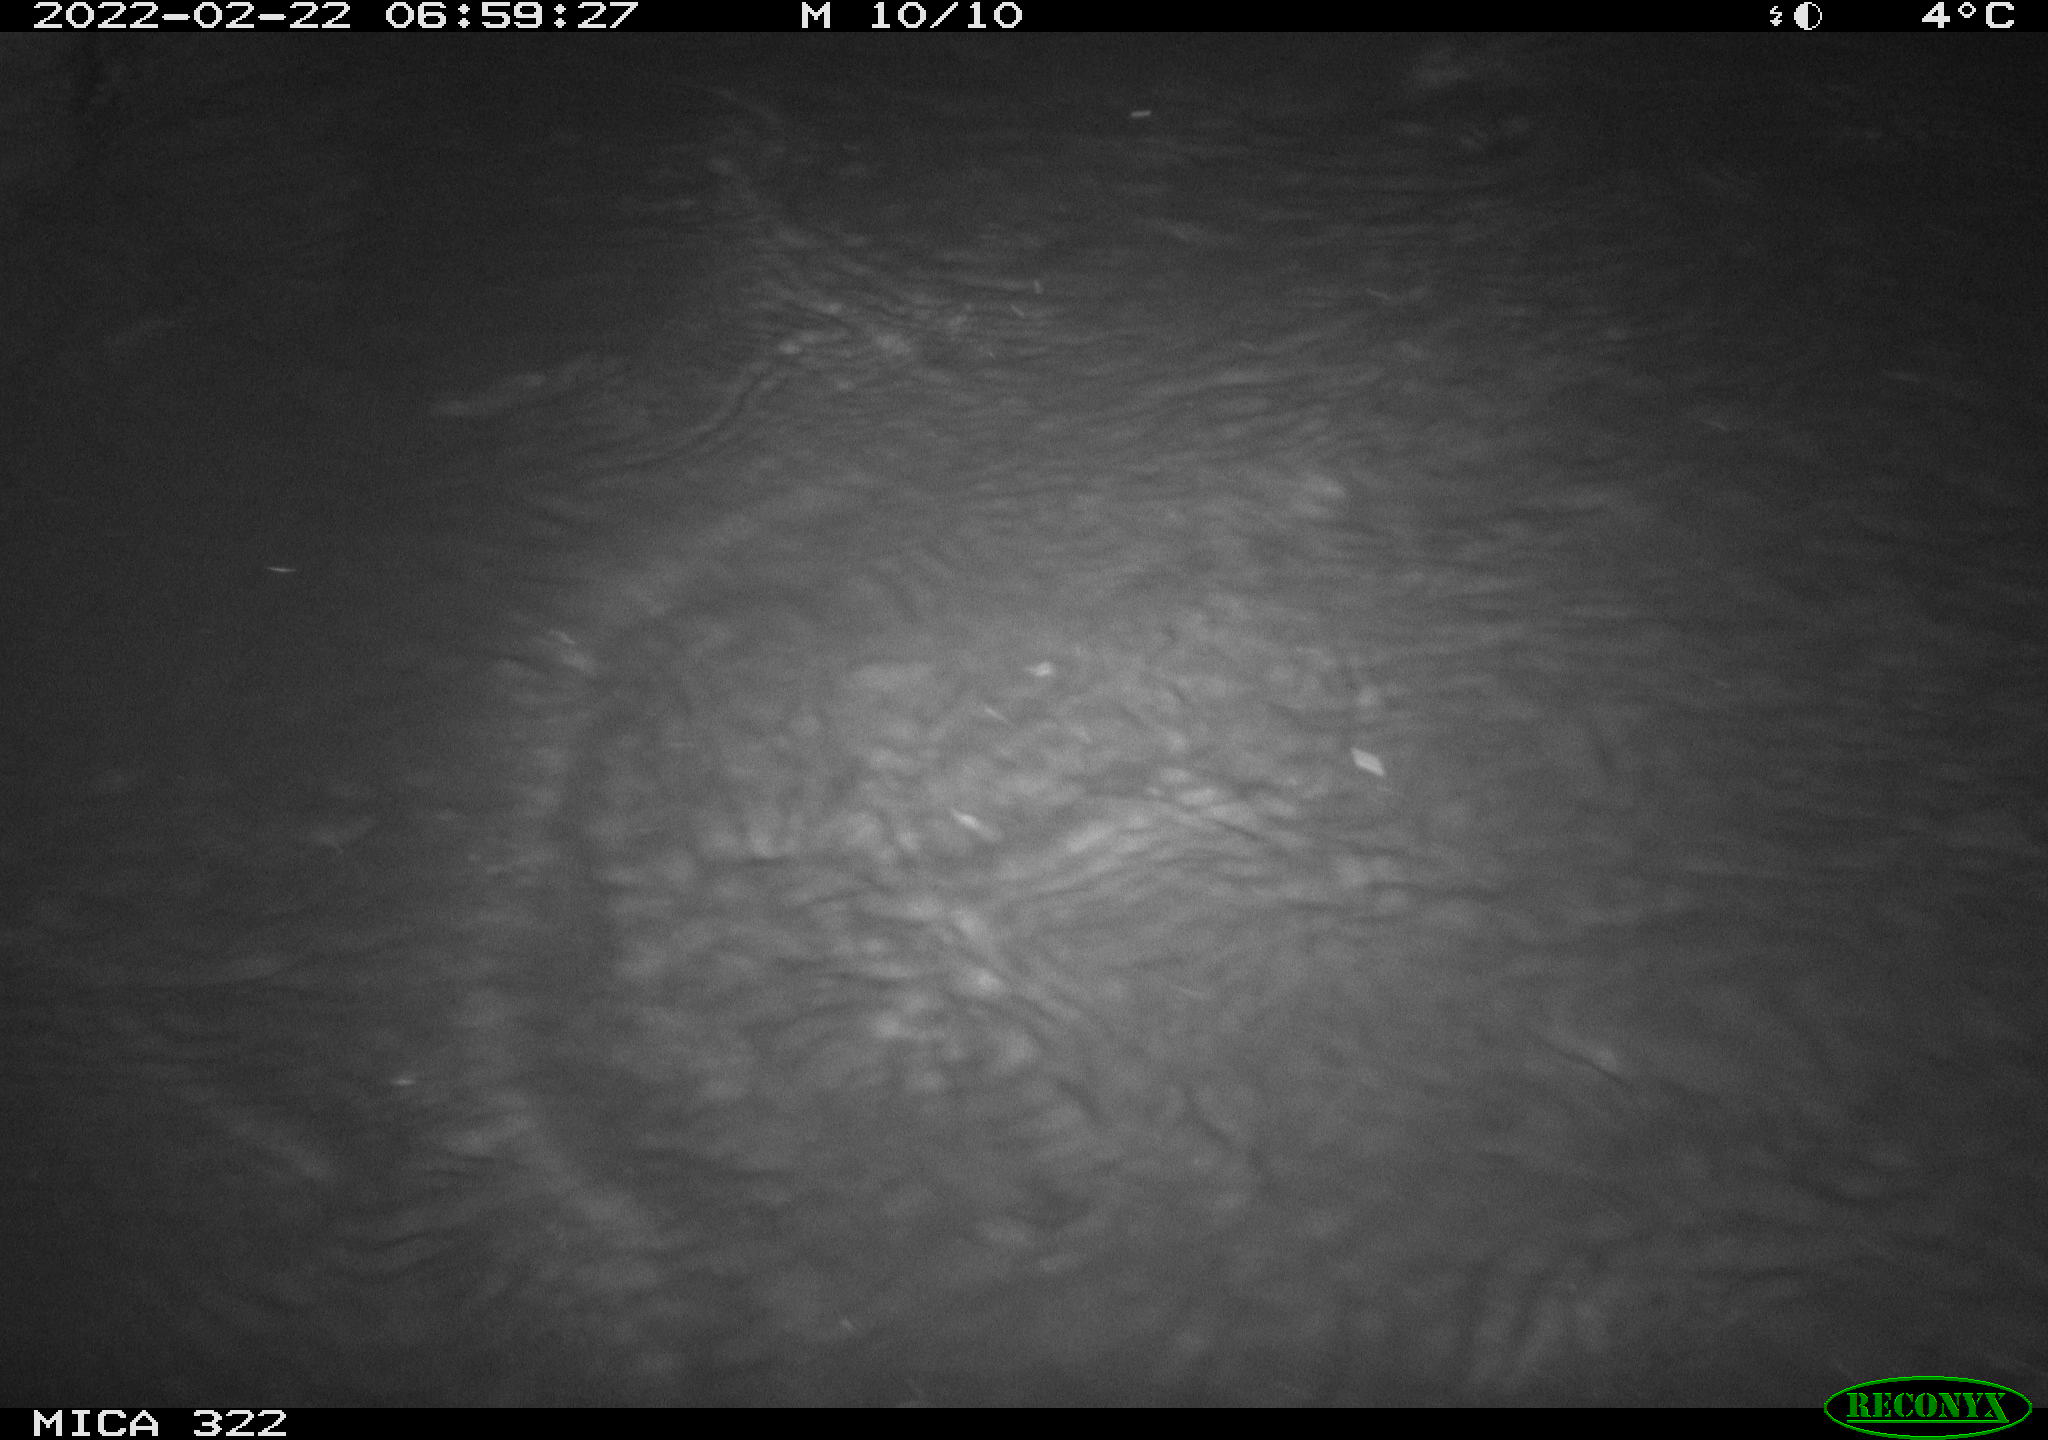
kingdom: Animalia
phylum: Chordata
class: Aves
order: Anseriformes
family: Anatidae
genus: Mareca
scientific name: Mareca strepera
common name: Gadwall
